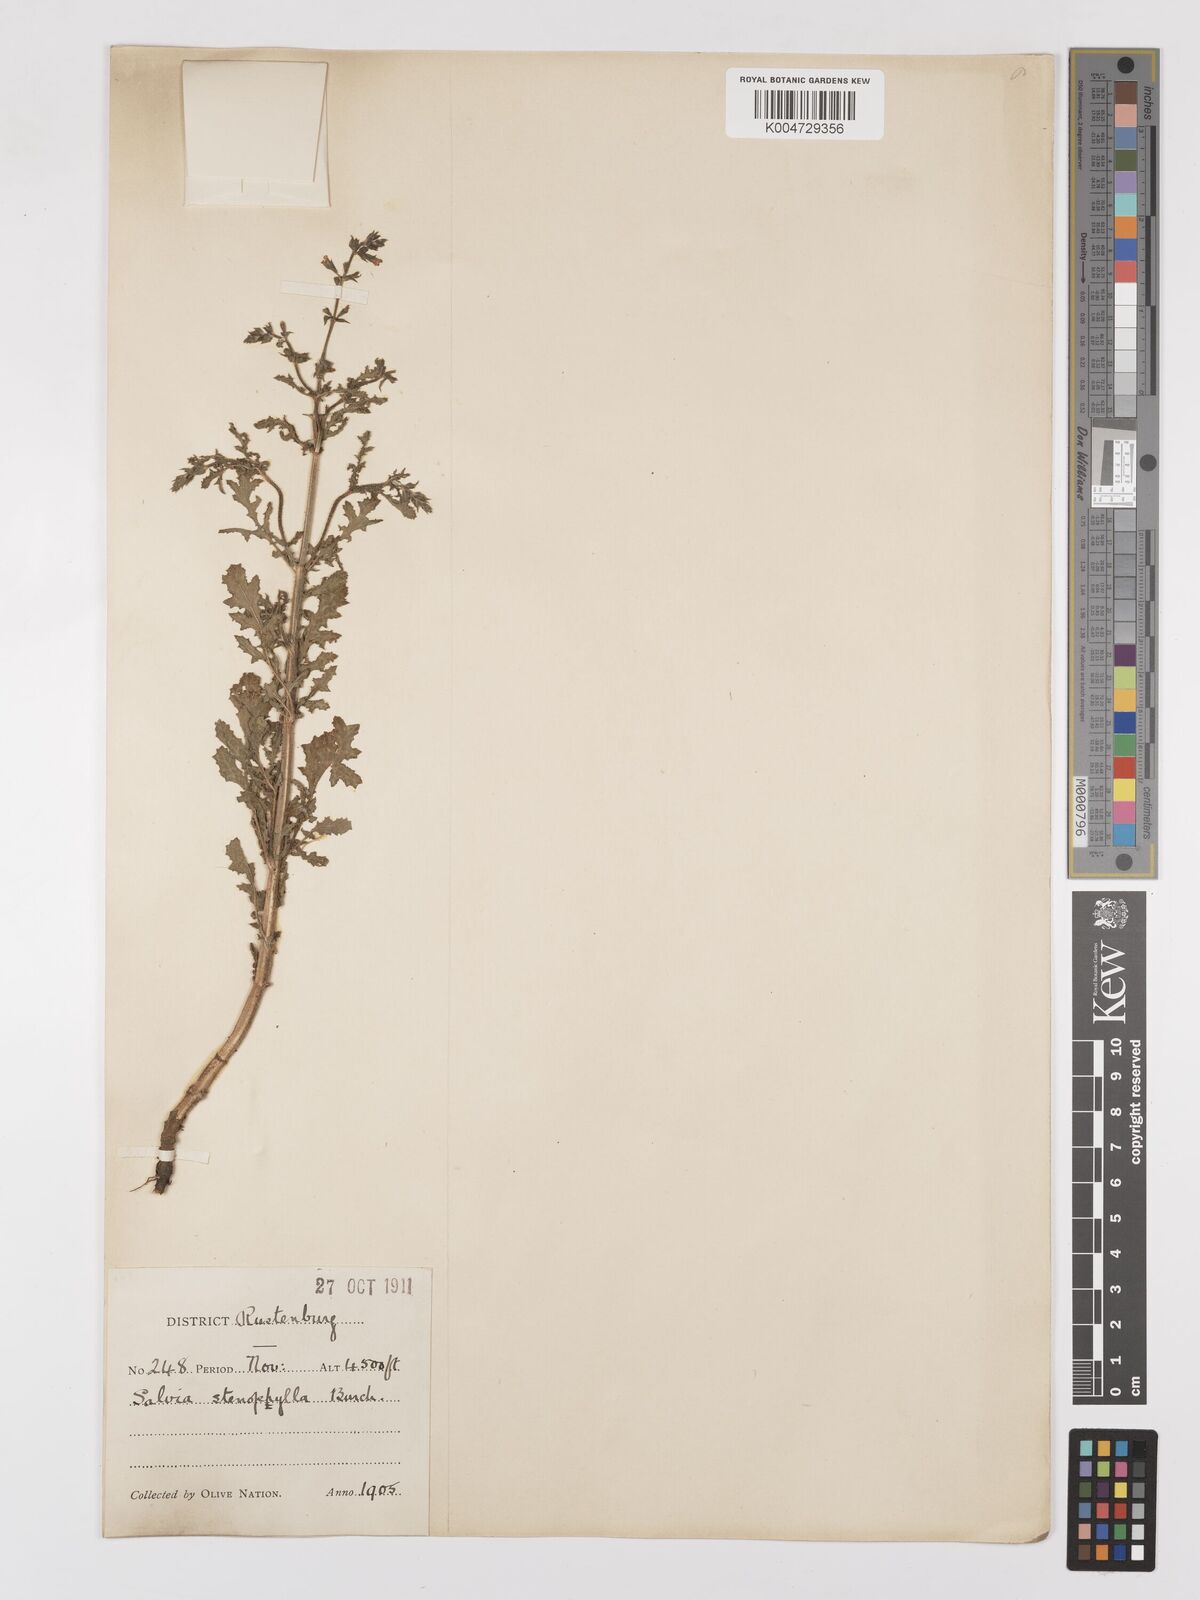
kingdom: Plantae
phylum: Tracheophyta
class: Magnoliopsida
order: Lamiales
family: Lamiaceae
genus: Salvia
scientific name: Salvia stenophylla
